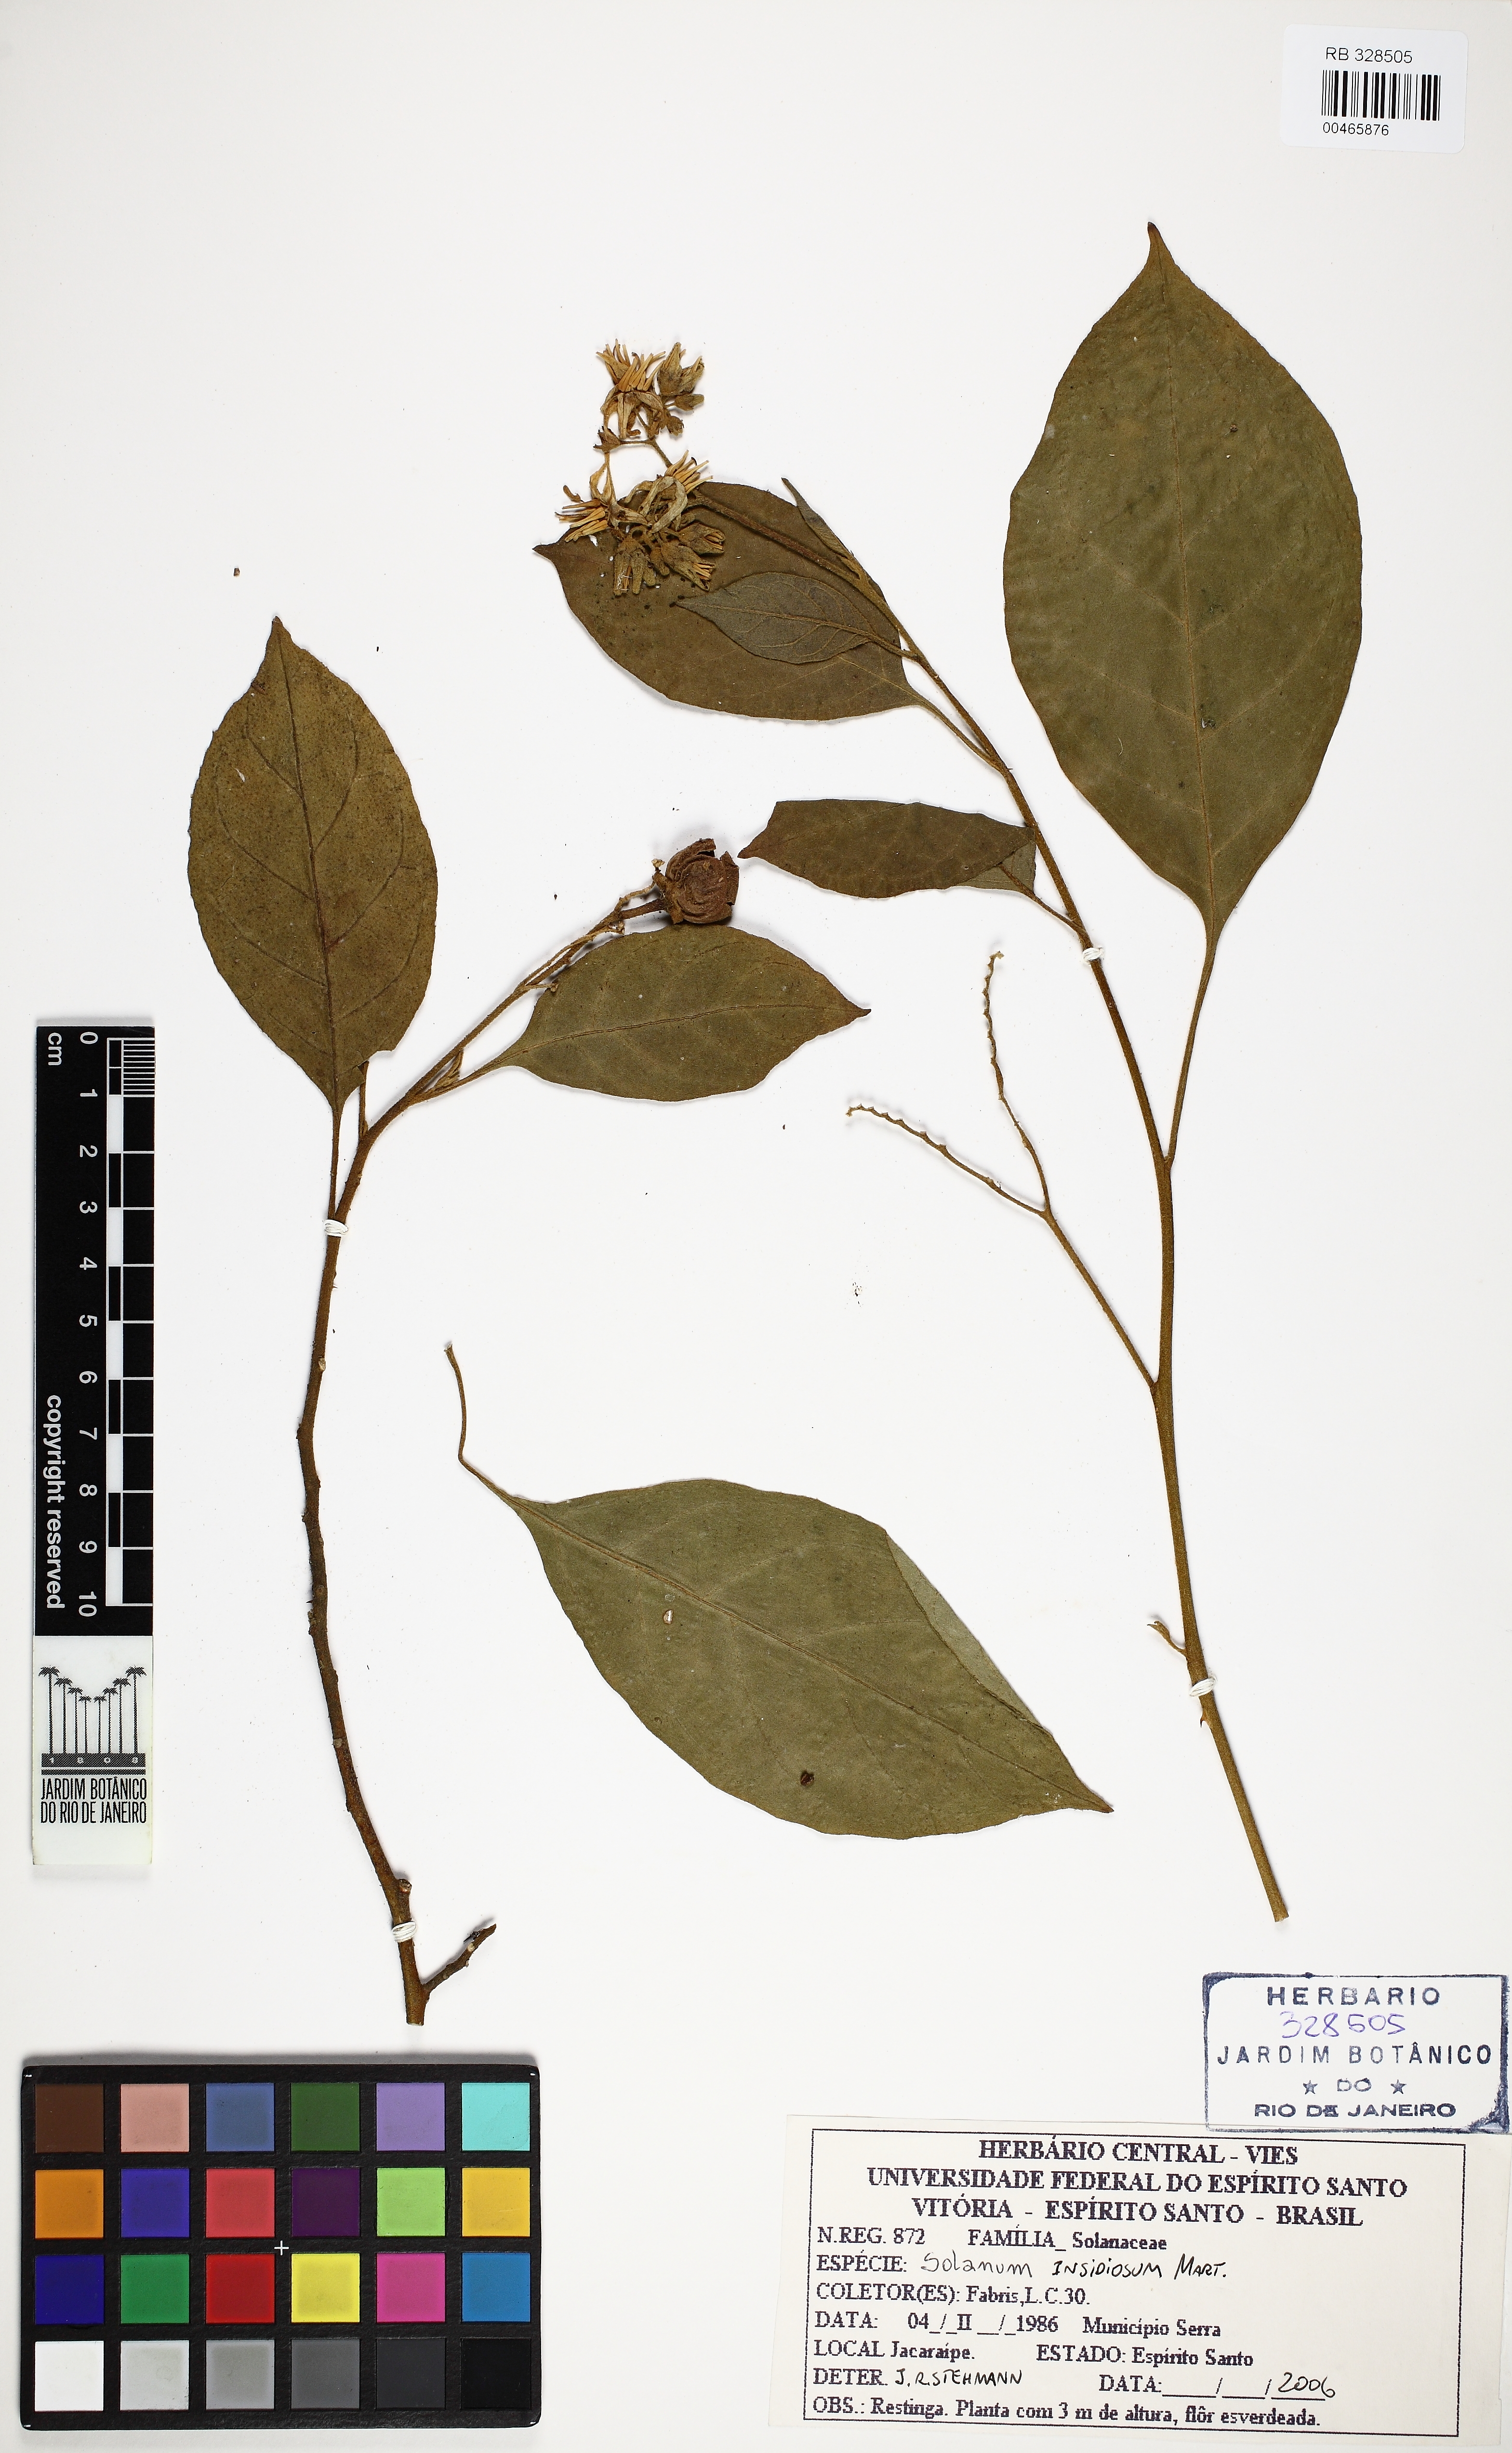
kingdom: Plantae
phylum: Tracheophyta
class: Magnoliopsida
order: Solanales
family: Solanaceae
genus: Solanum
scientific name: Solanum insidiosum
